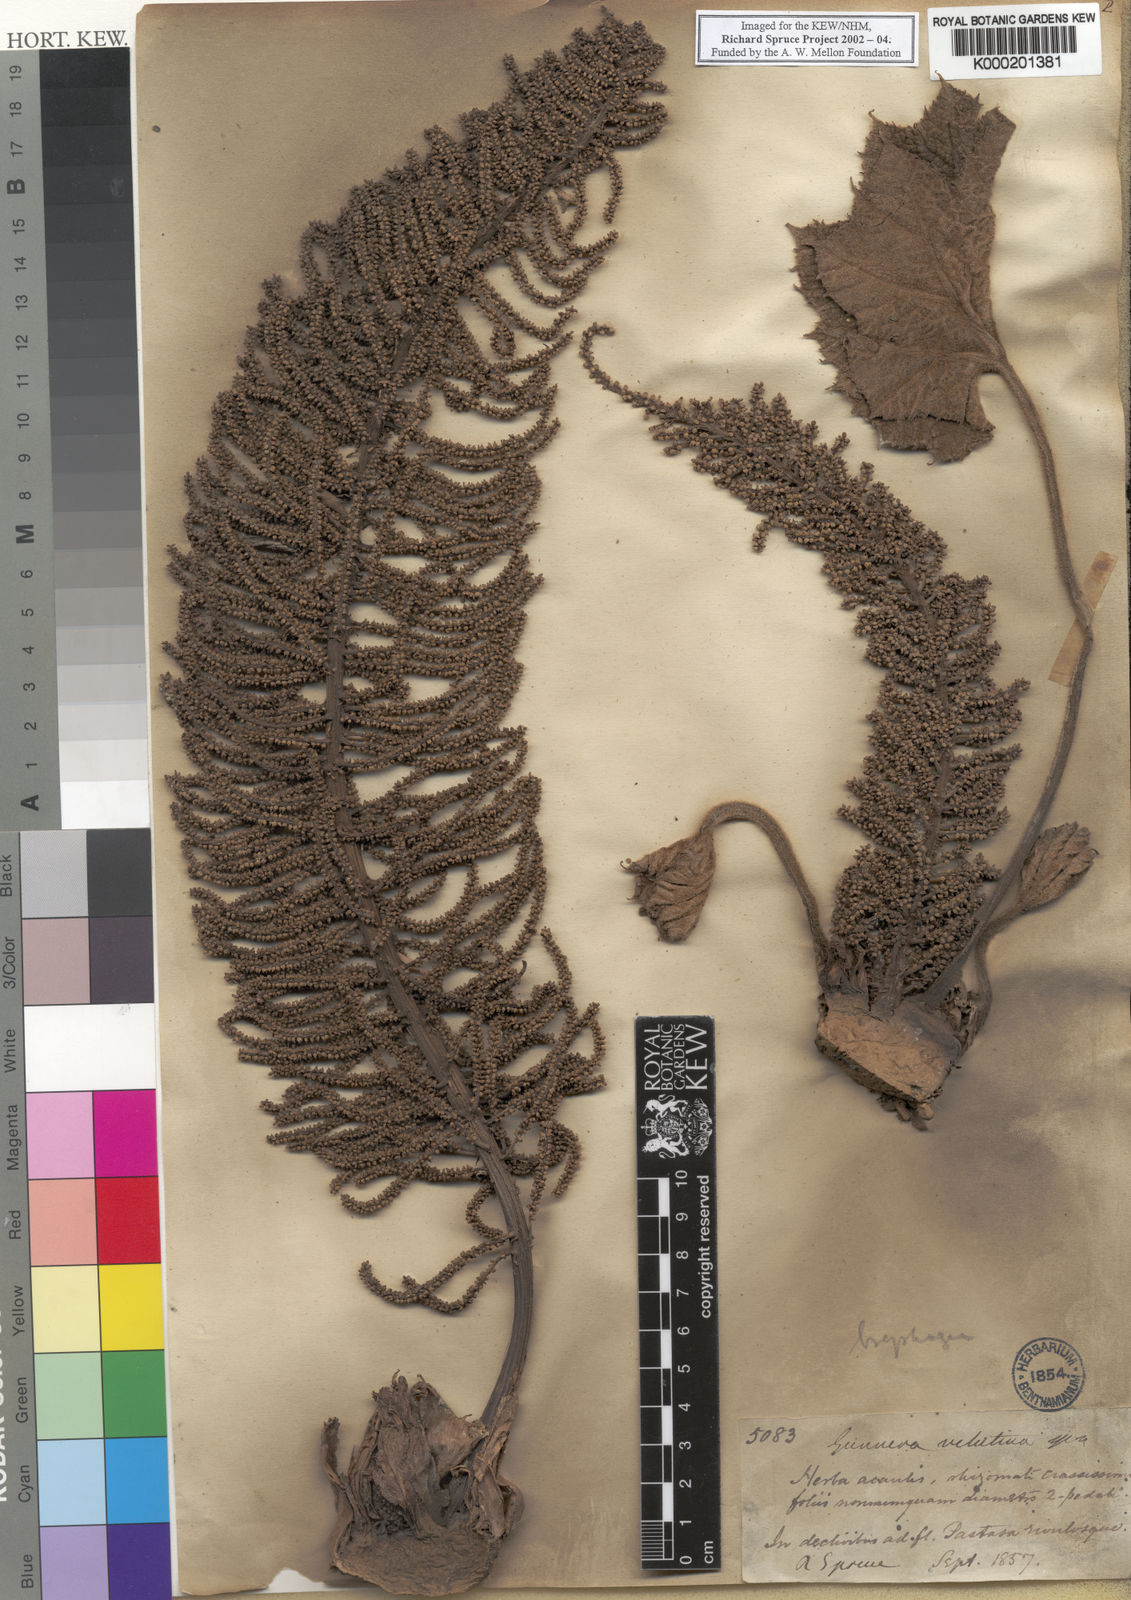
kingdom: Plantae
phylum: Tracheophyta
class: Magnoliopsida
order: Gunnerales
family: Gunneraceae
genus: Gunnera
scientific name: Gunnera
